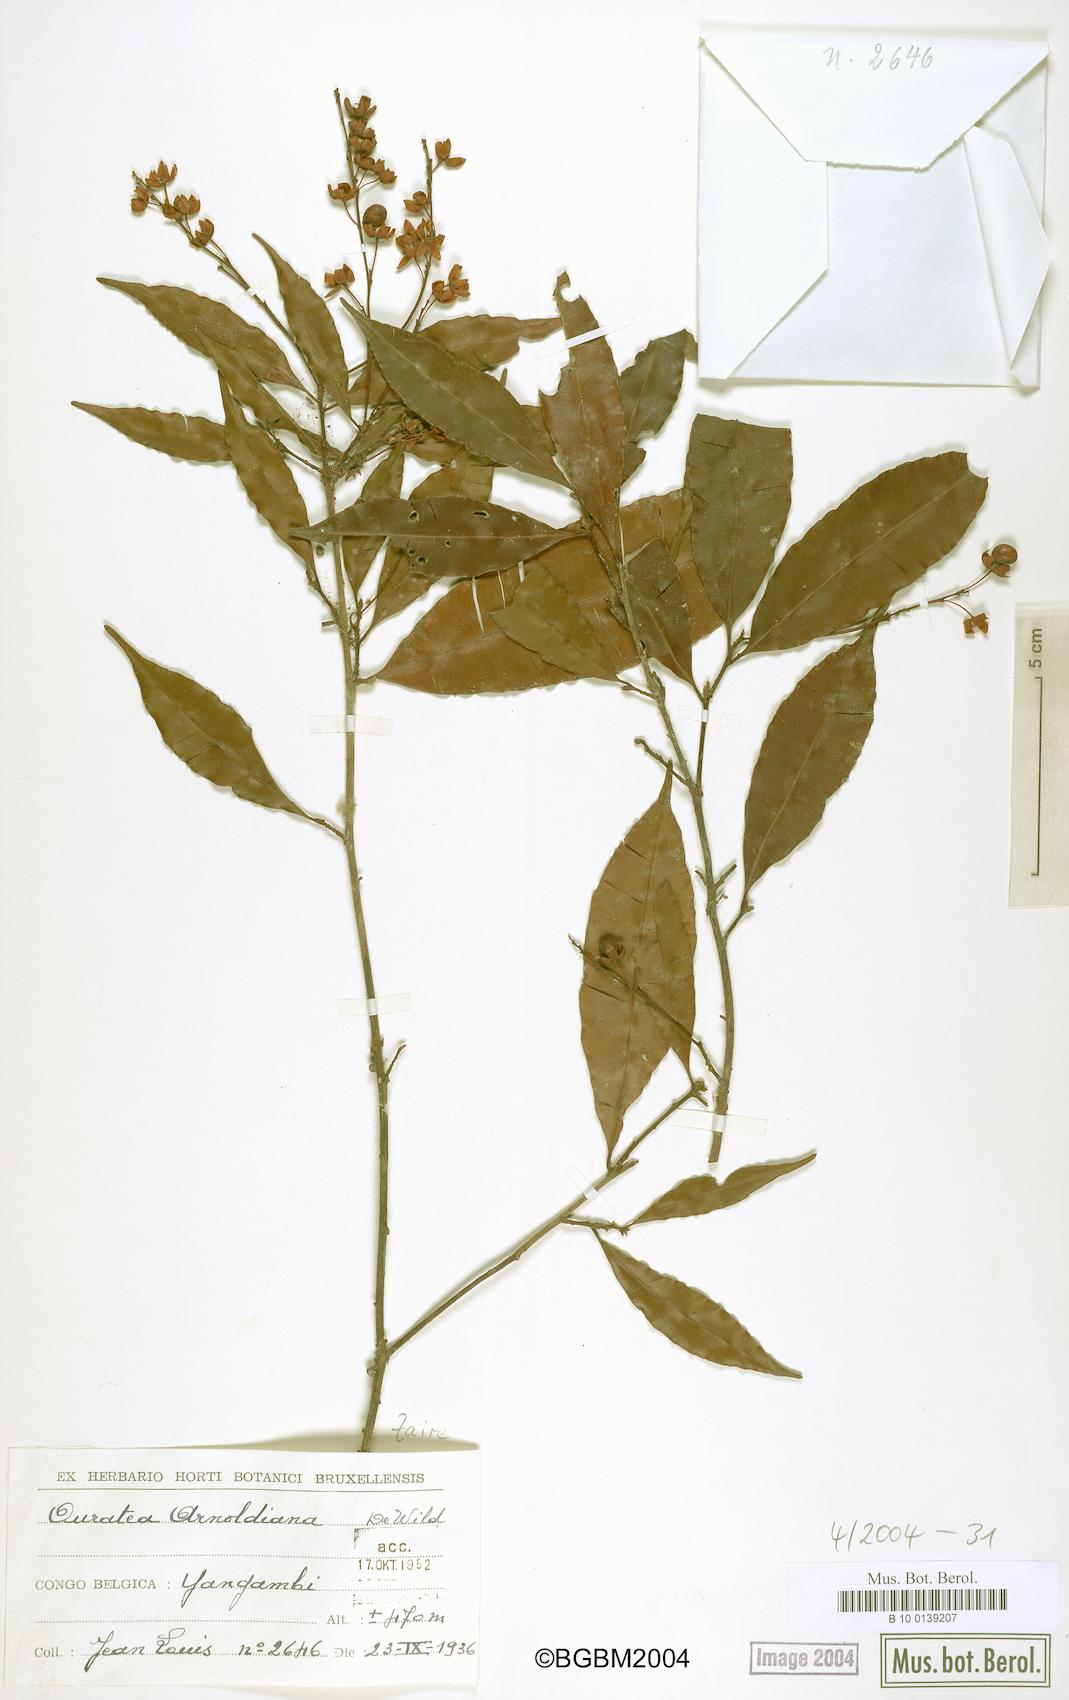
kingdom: Plantae
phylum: Tracheophyta
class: Magnoliopsida
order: Malpighiales
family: Ochnaceae
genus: Rhabdophyllum
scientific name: Rhabdophyllum arnoldianum
